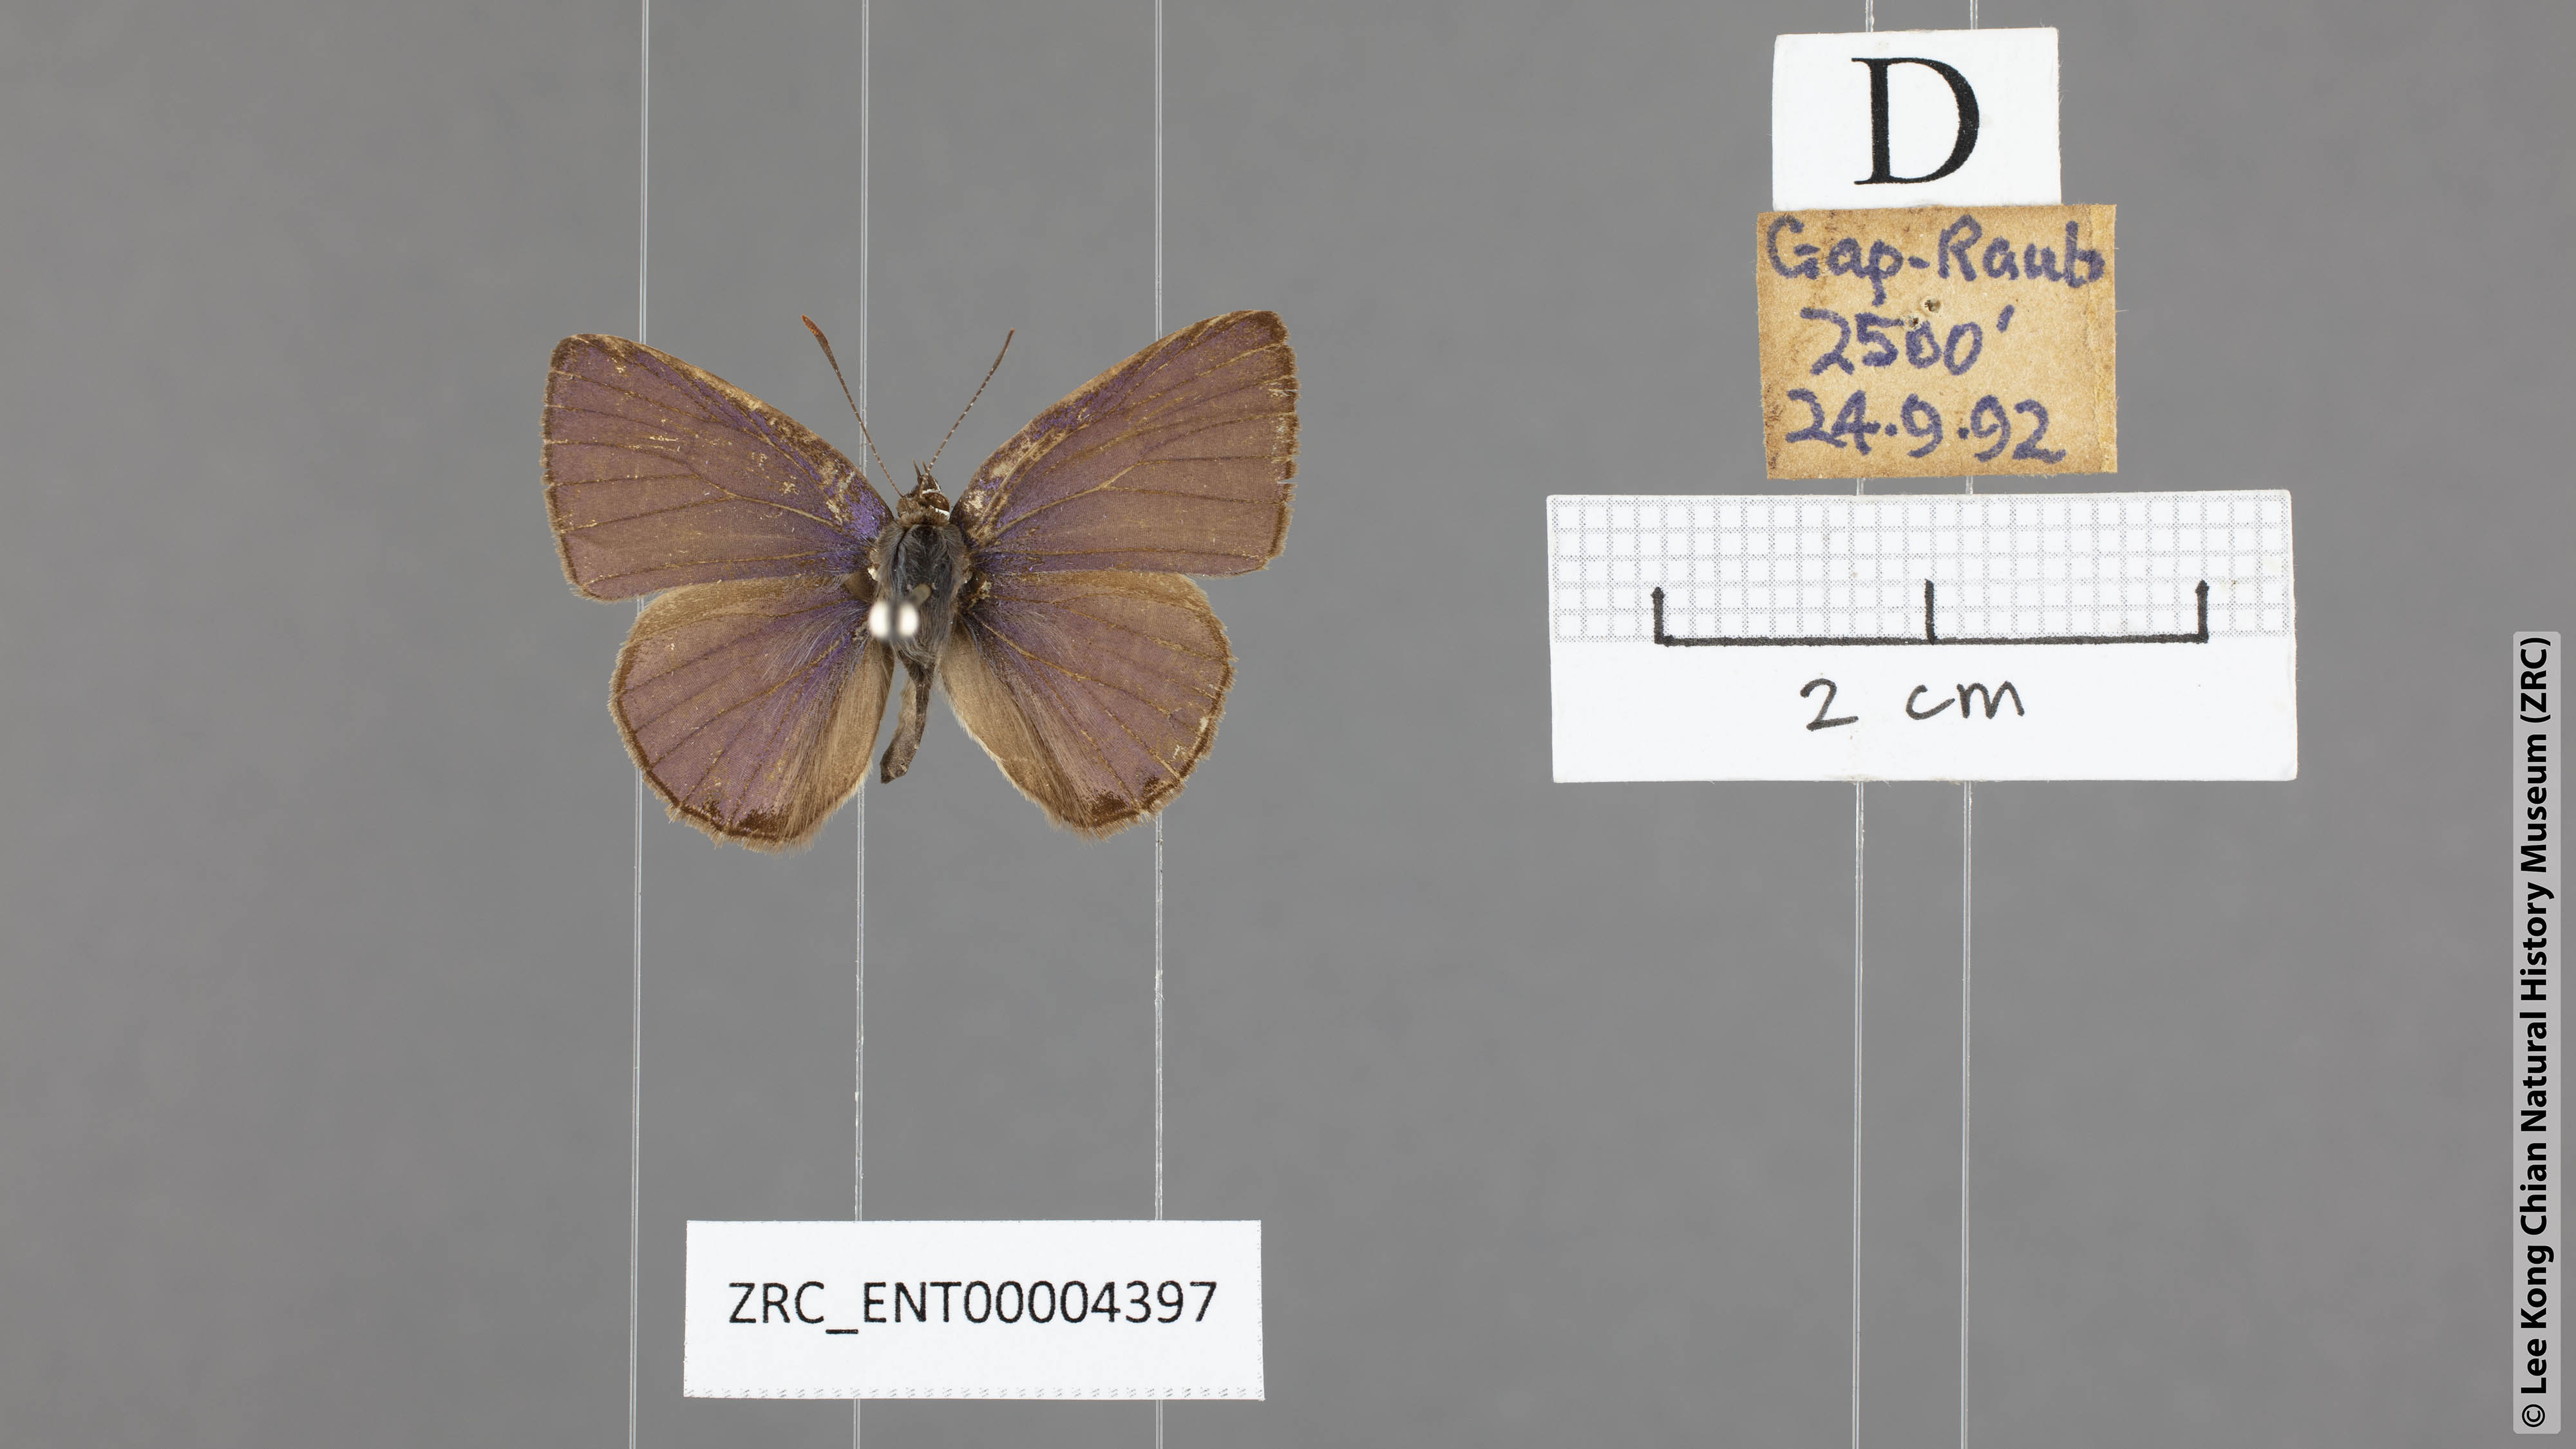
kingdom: Animalia
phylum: Arthropoda
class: Insecta
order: Lepidoptera
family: Lycaenidae
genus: Nacaduba
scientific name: Nacaduba hermus
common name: Pale four-line blue
